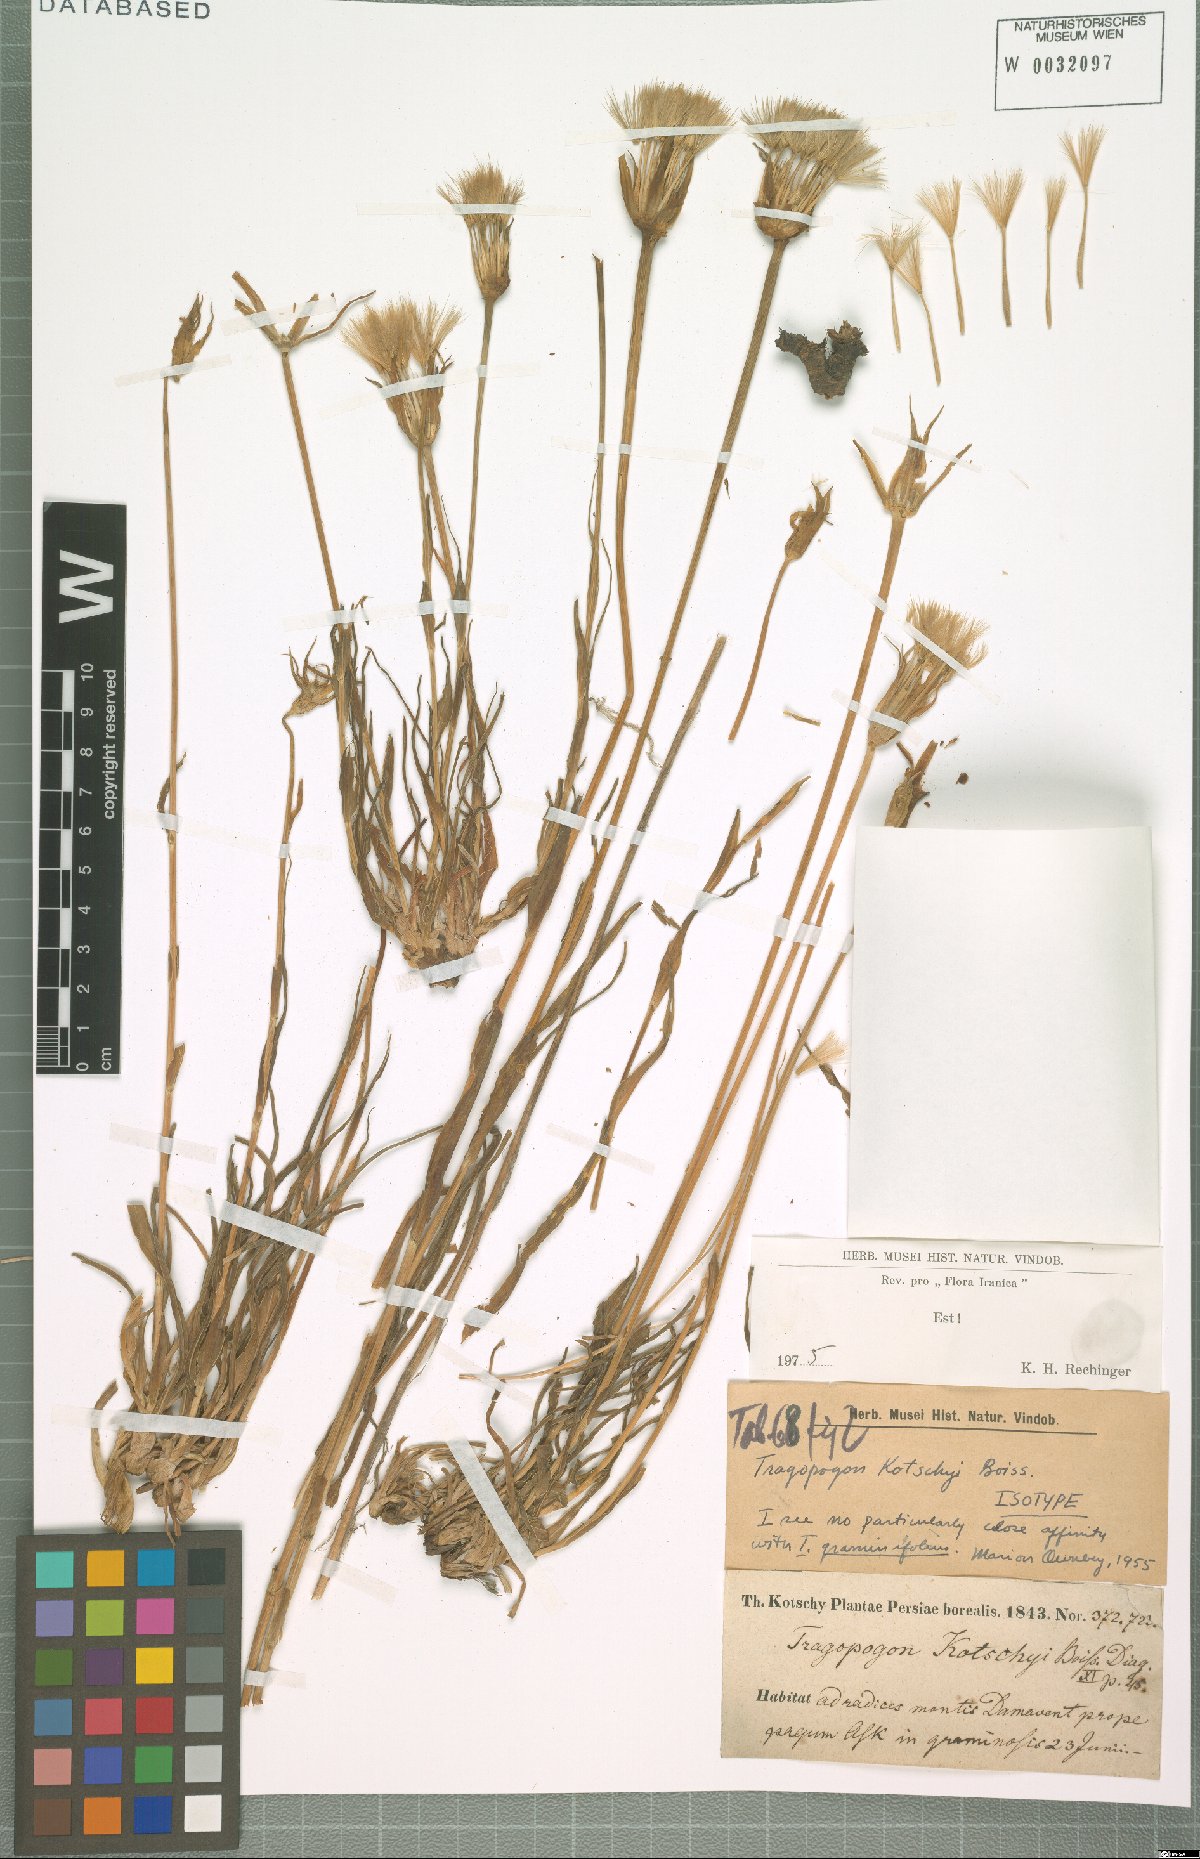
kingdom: Plantae
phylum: Tracheophyta
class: Magnoliopsida
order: Asterales
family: Asteraceae
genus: Tragopogon
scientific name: Tragopogon kotschyi
